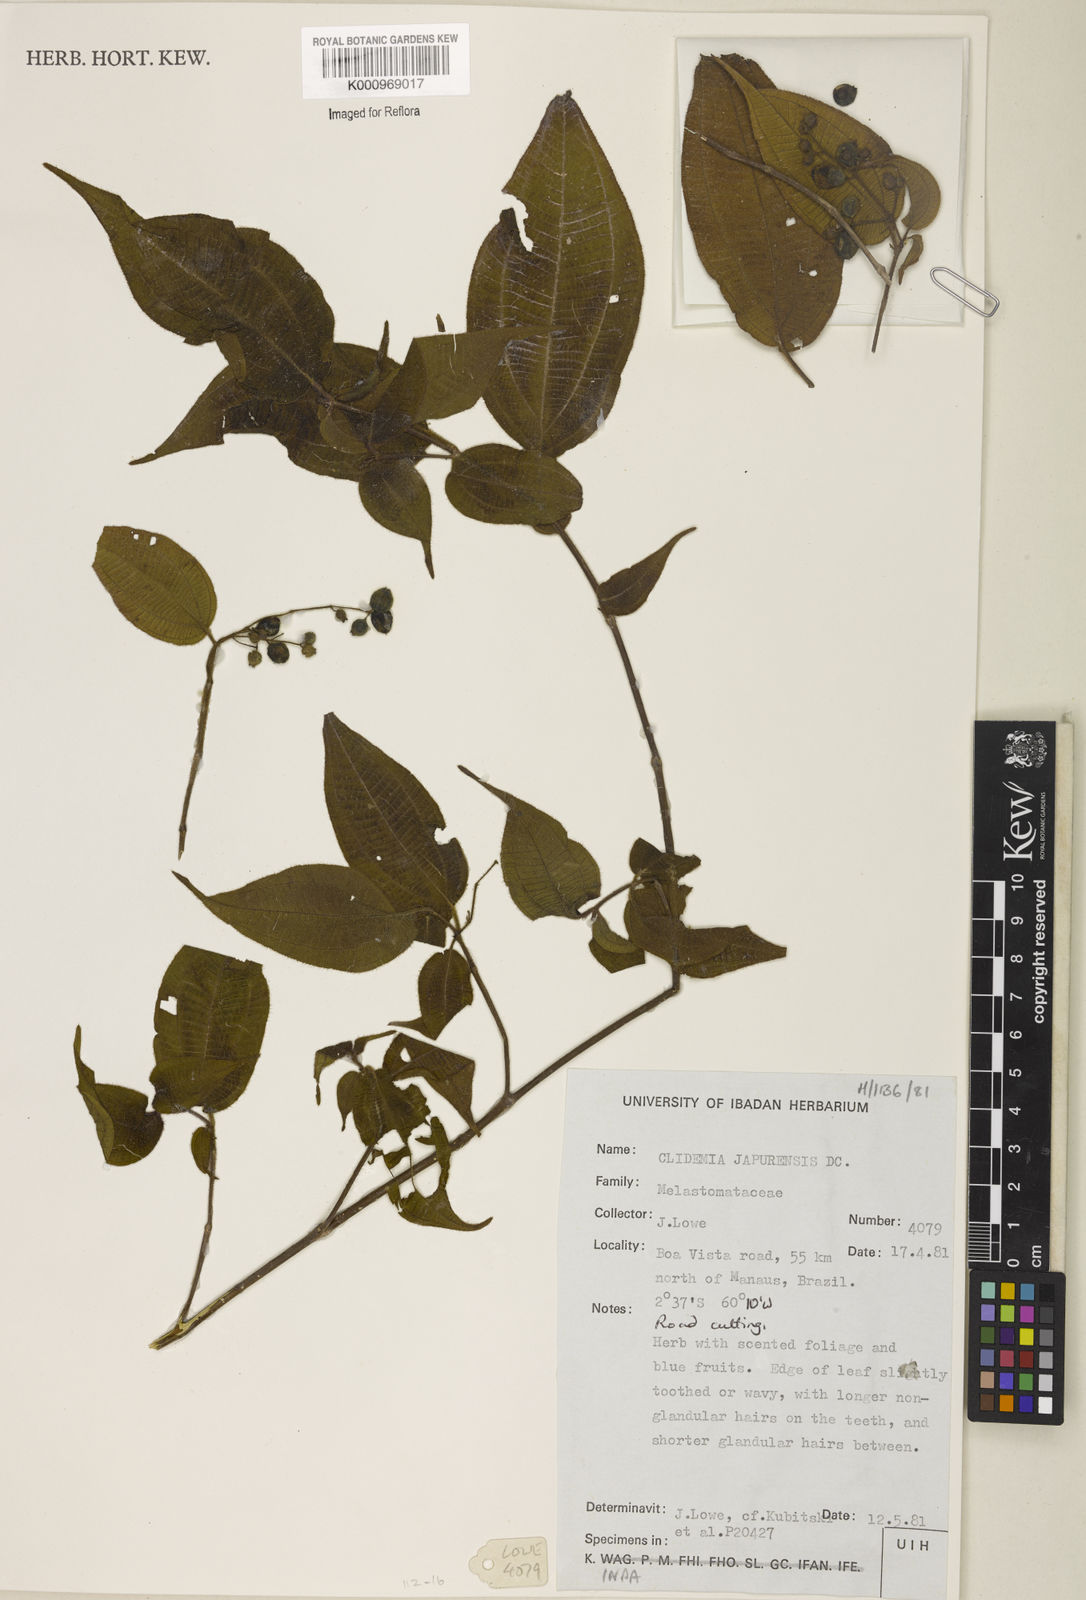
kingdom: Plantae
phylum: Tracheophyta
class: Magnoliopsida
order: Myrtales
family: Melastomataceae
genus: Miconia
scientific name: Miconia heteroclita
